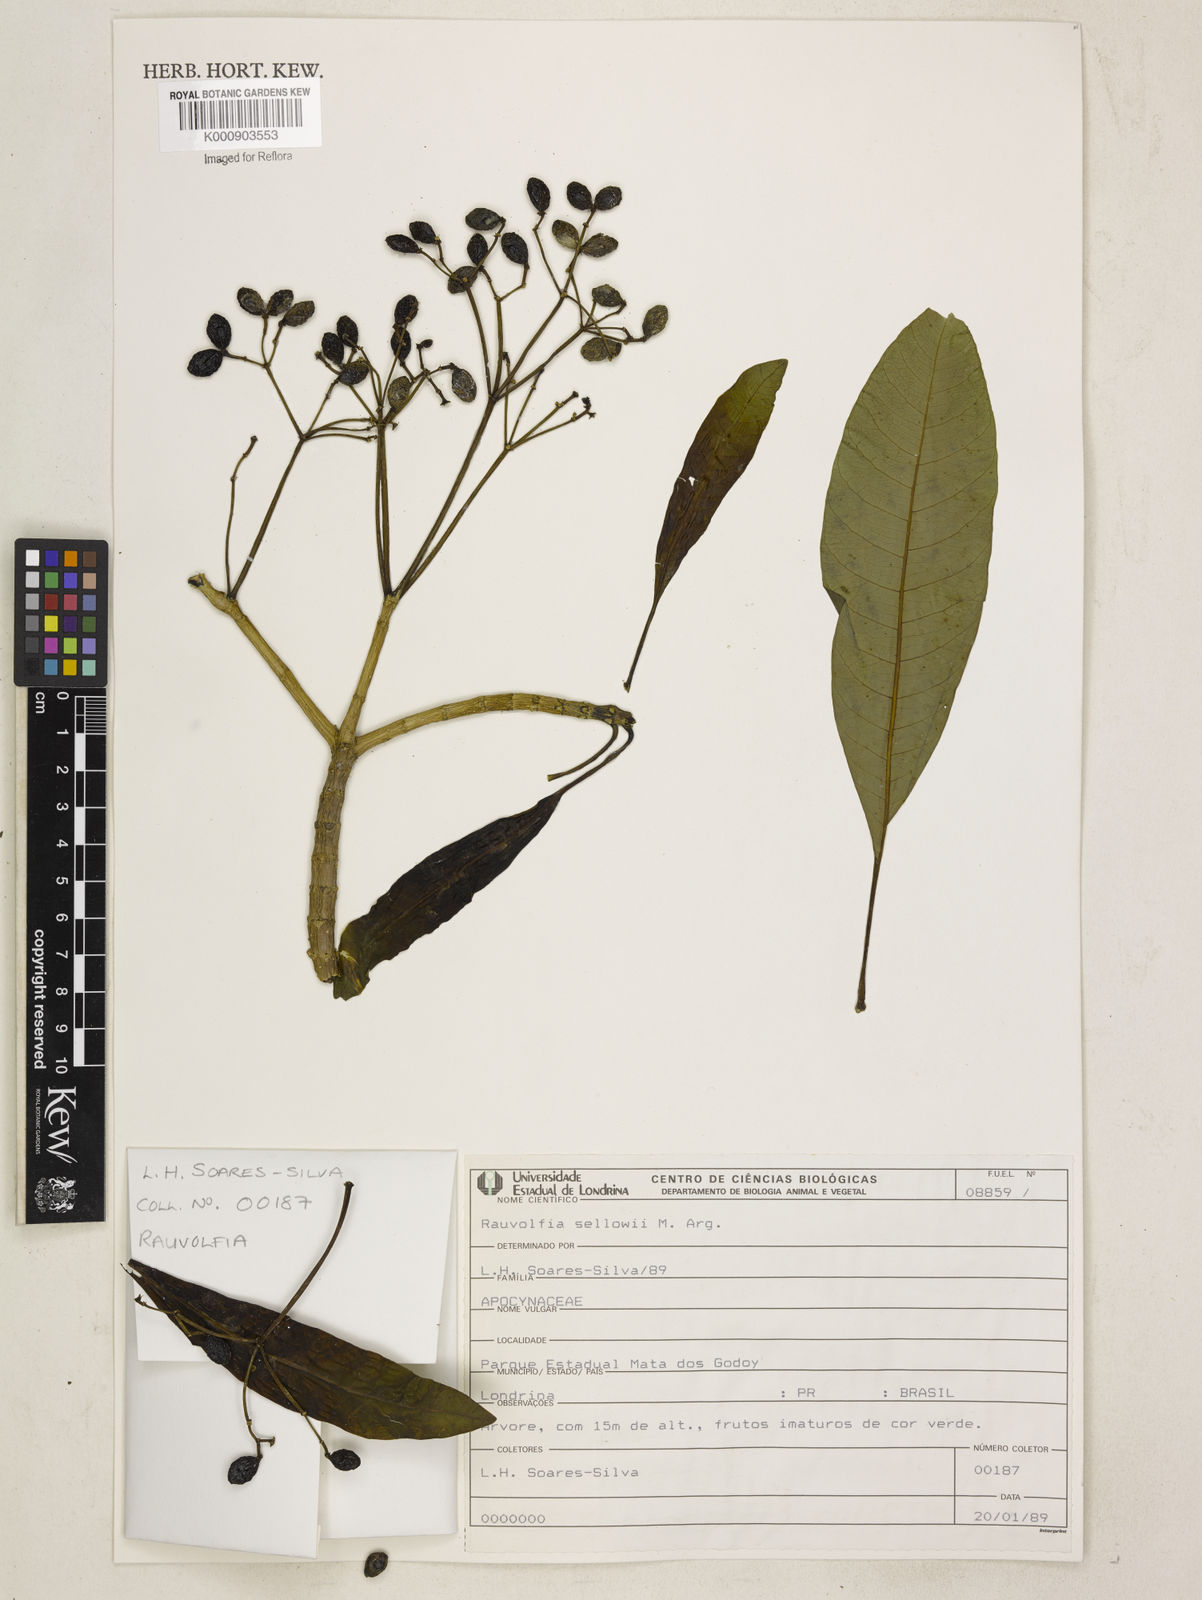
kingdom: Plantae
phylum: Tracheophyta
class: Magnoliopsida
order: Gentianales
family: Apocynaceae
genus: Rauvolfia
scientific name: Rauvolfia
